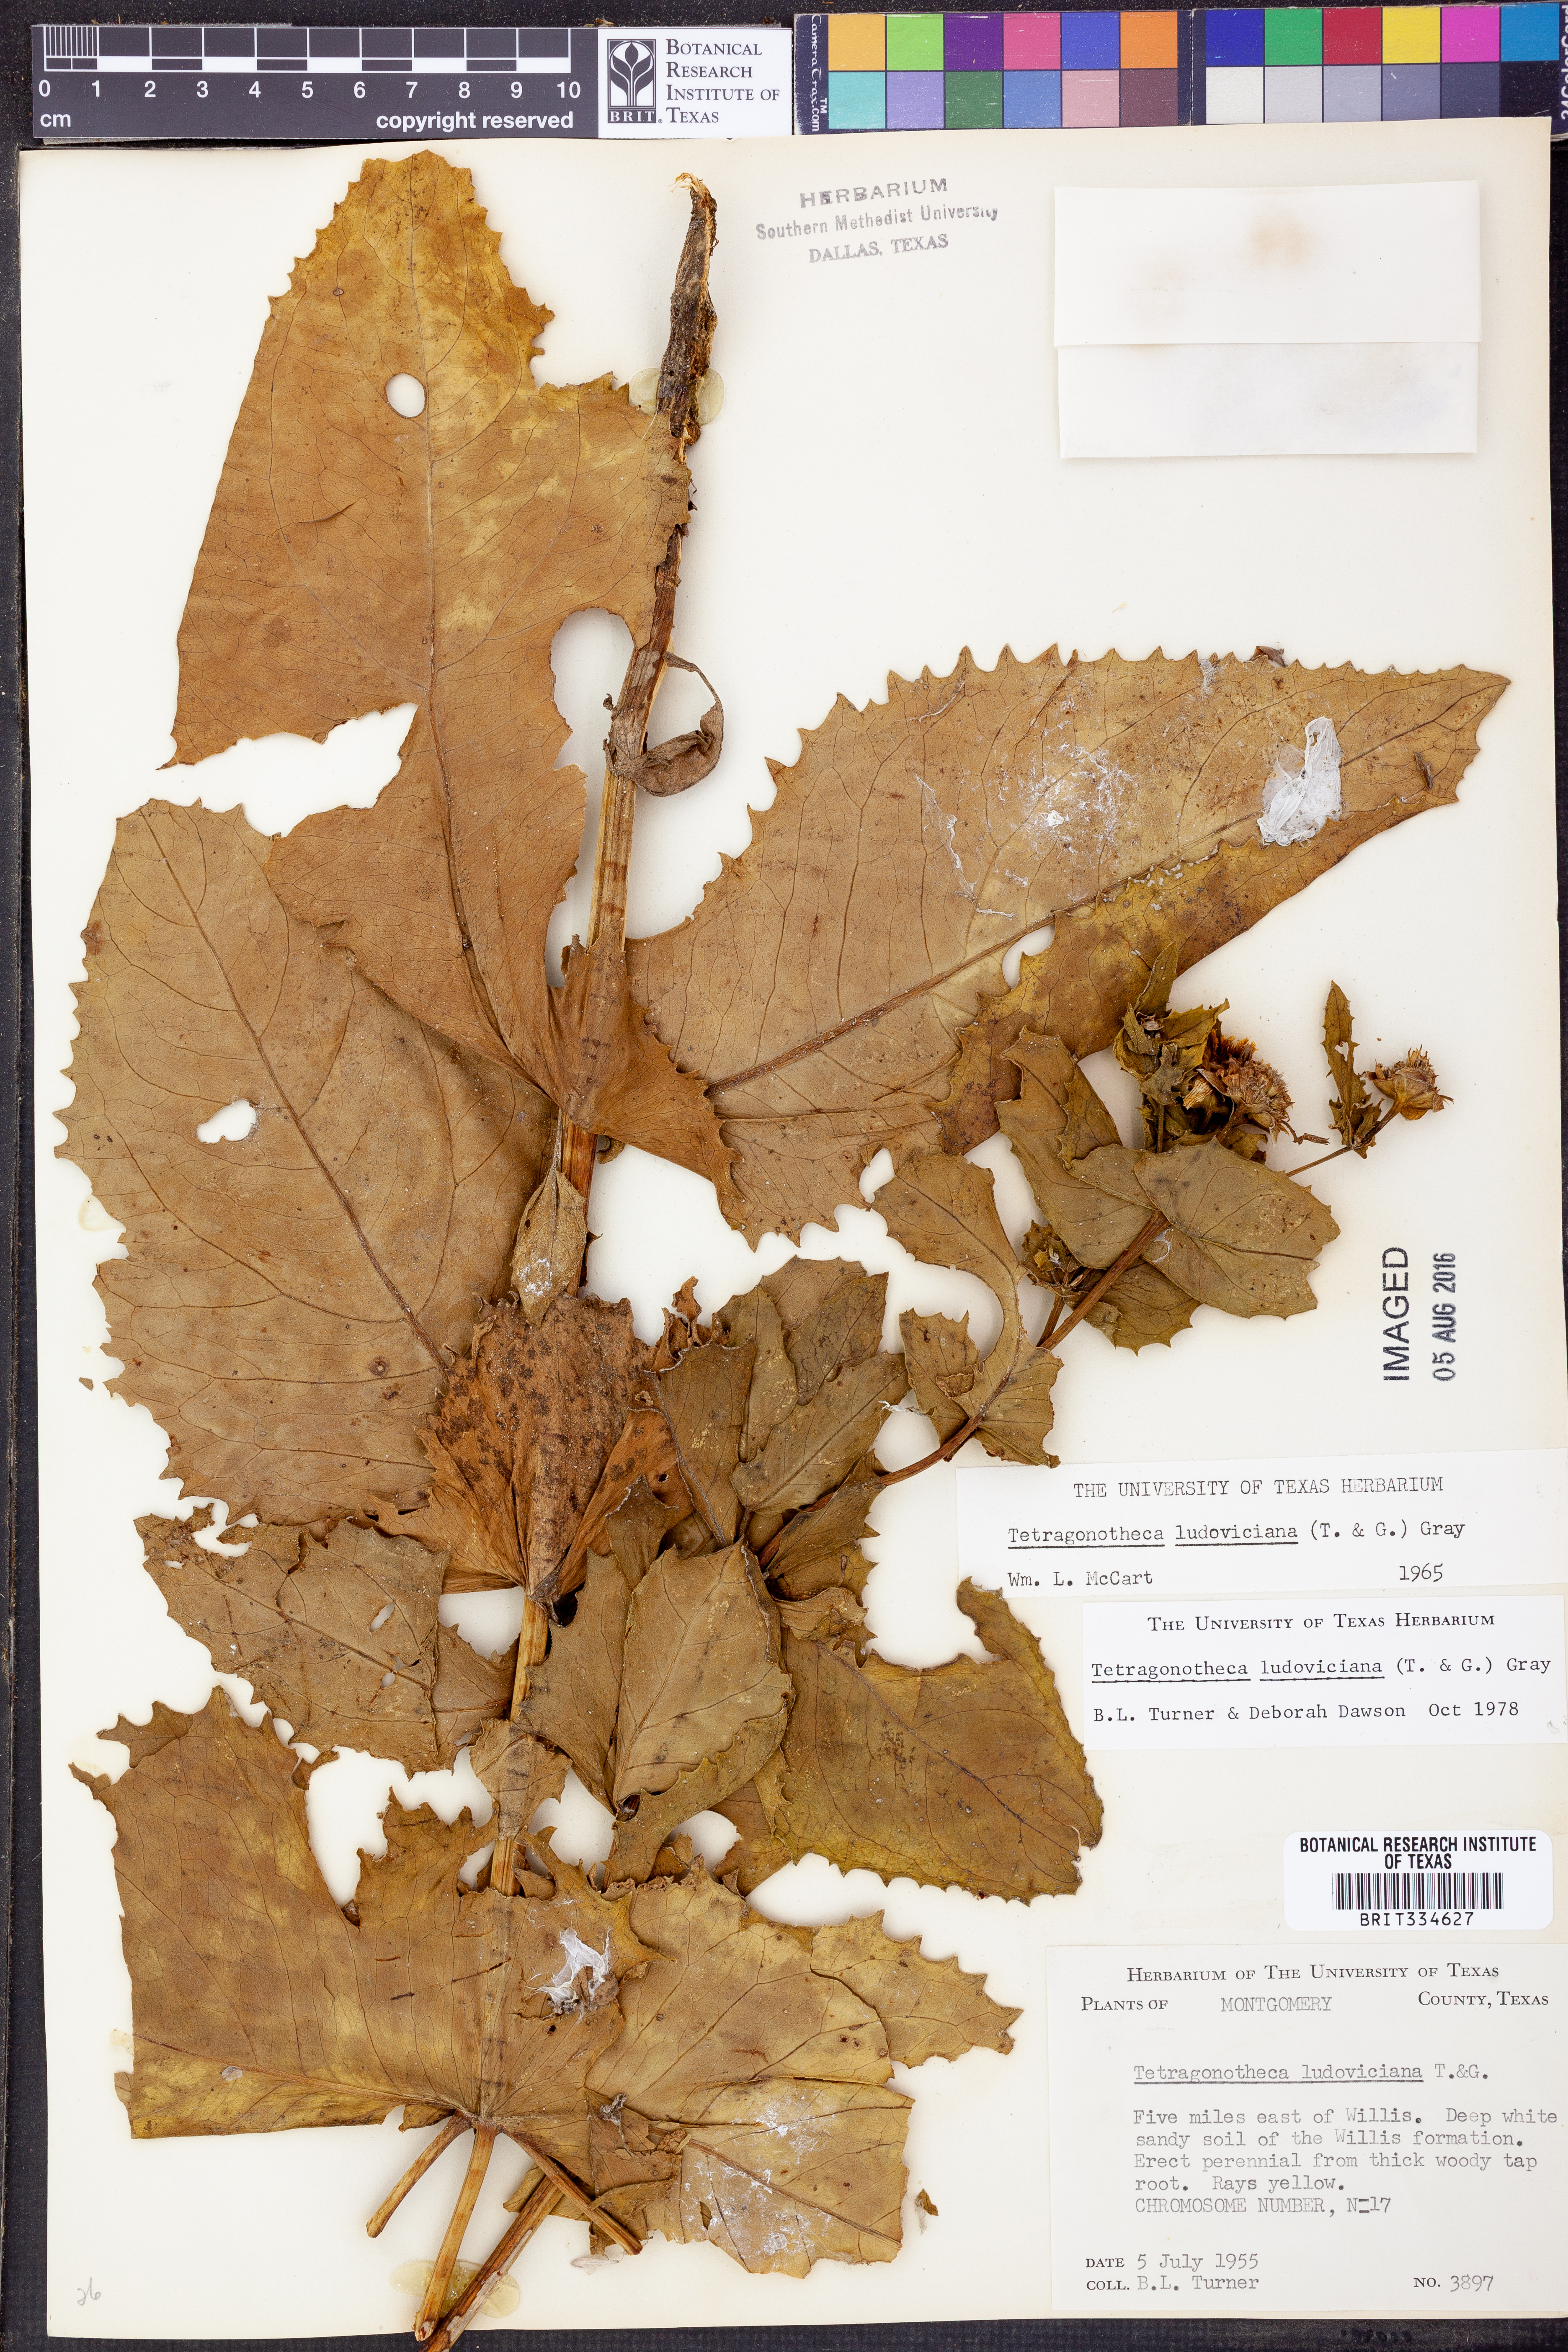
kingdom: Plantae
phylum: Tracheophyta
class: Magnoliopsida
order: Asterales
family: Asteraceae
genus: Tetragonotheca
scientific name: Tetragonotheca ludoviciana
